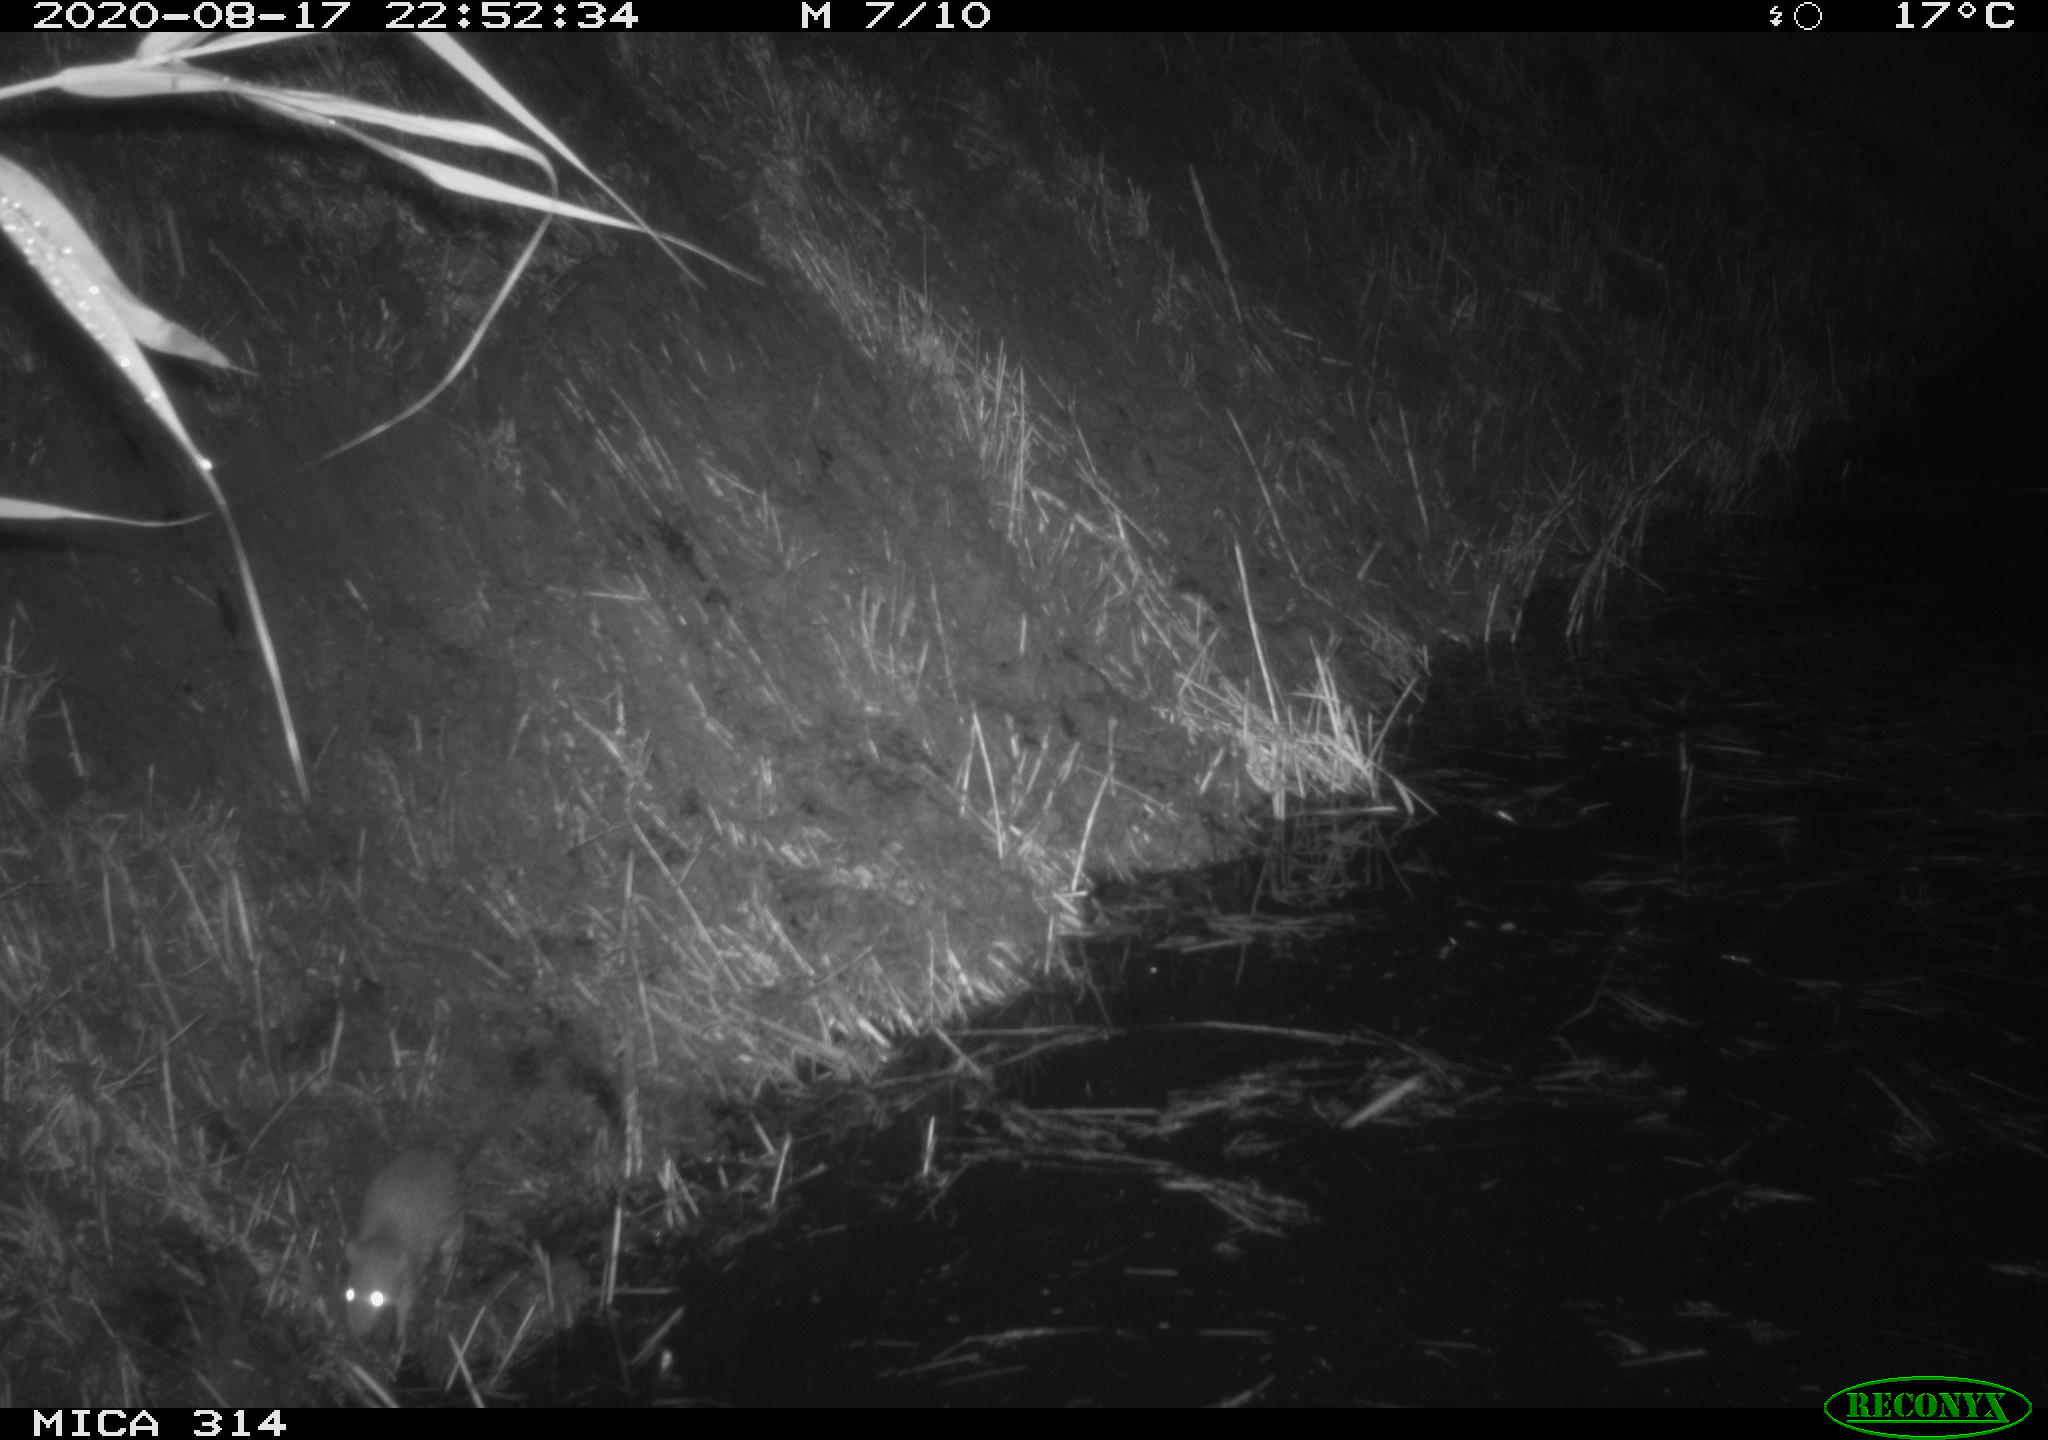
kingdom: Animalia
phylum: Chordata
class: Mammalia
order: Rodentia
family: Muridae
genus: Rattus
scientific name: Rattus norvegicus
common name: Brown rat
